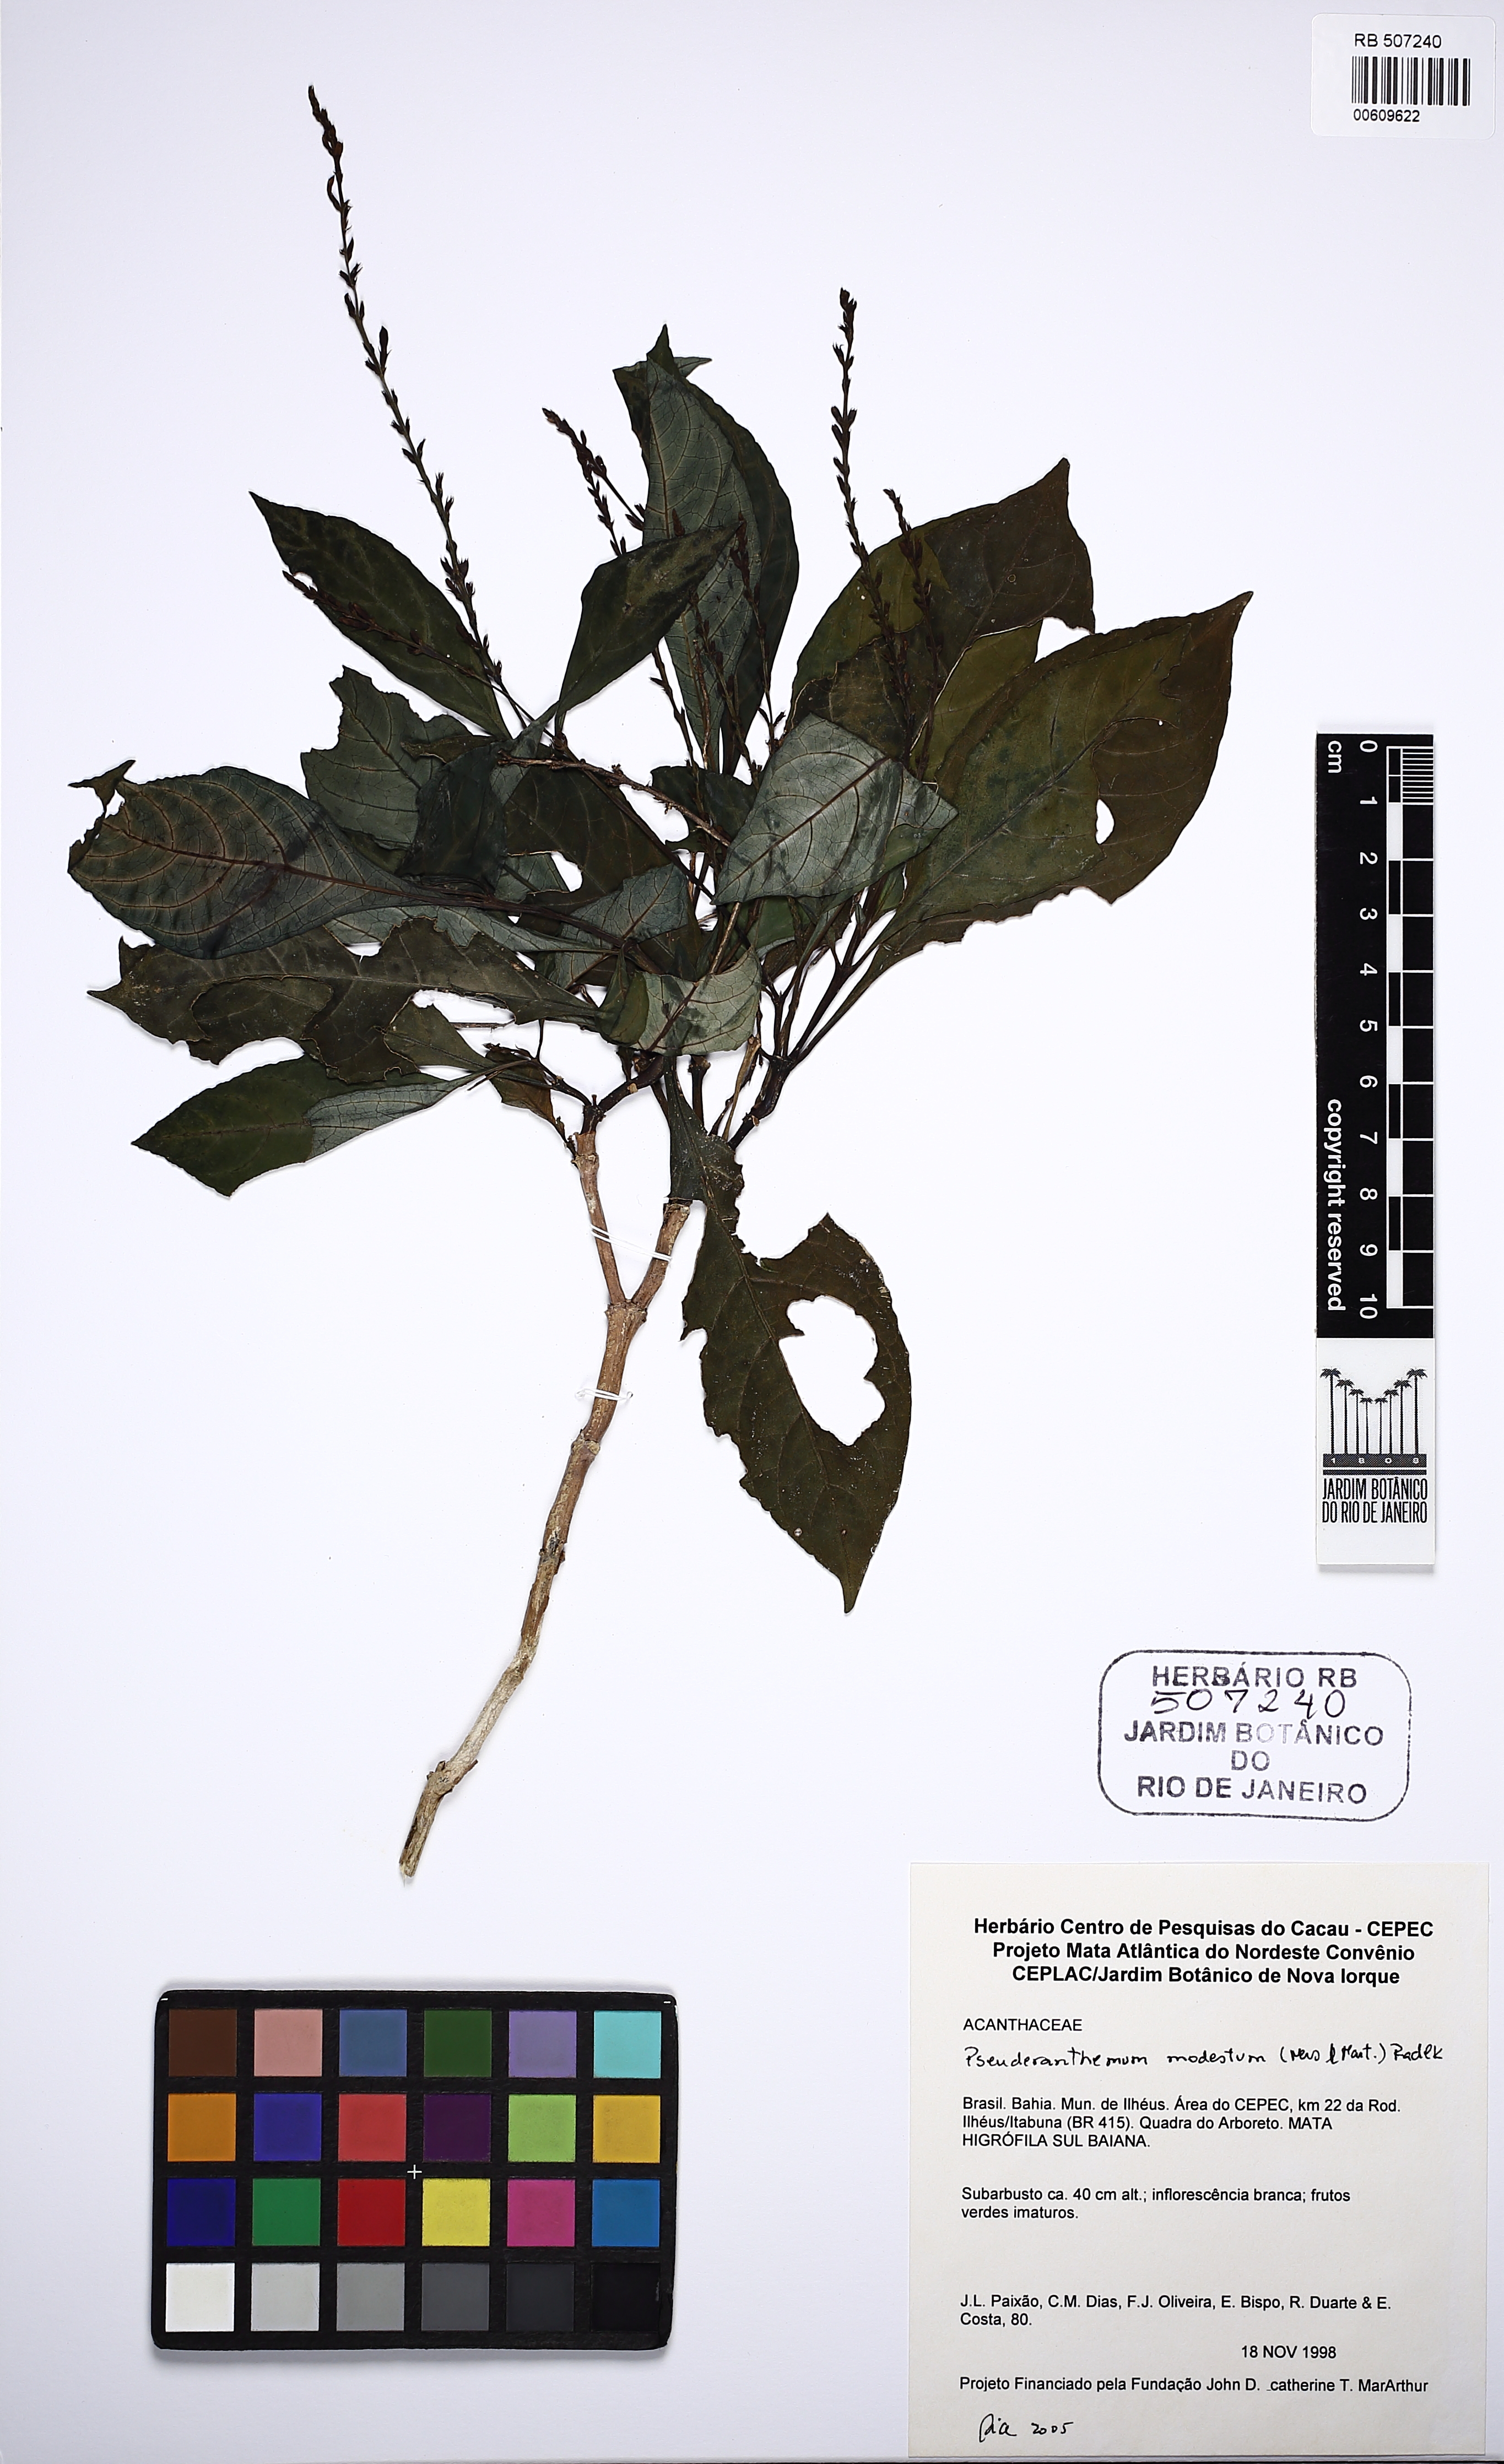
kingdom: Plantae
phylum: Tracheophyta
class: Magnoliopsida
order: Lamiales
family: Acanthaceae
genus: Pseuderanthemum
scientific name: Pseuderanthemum modestum
